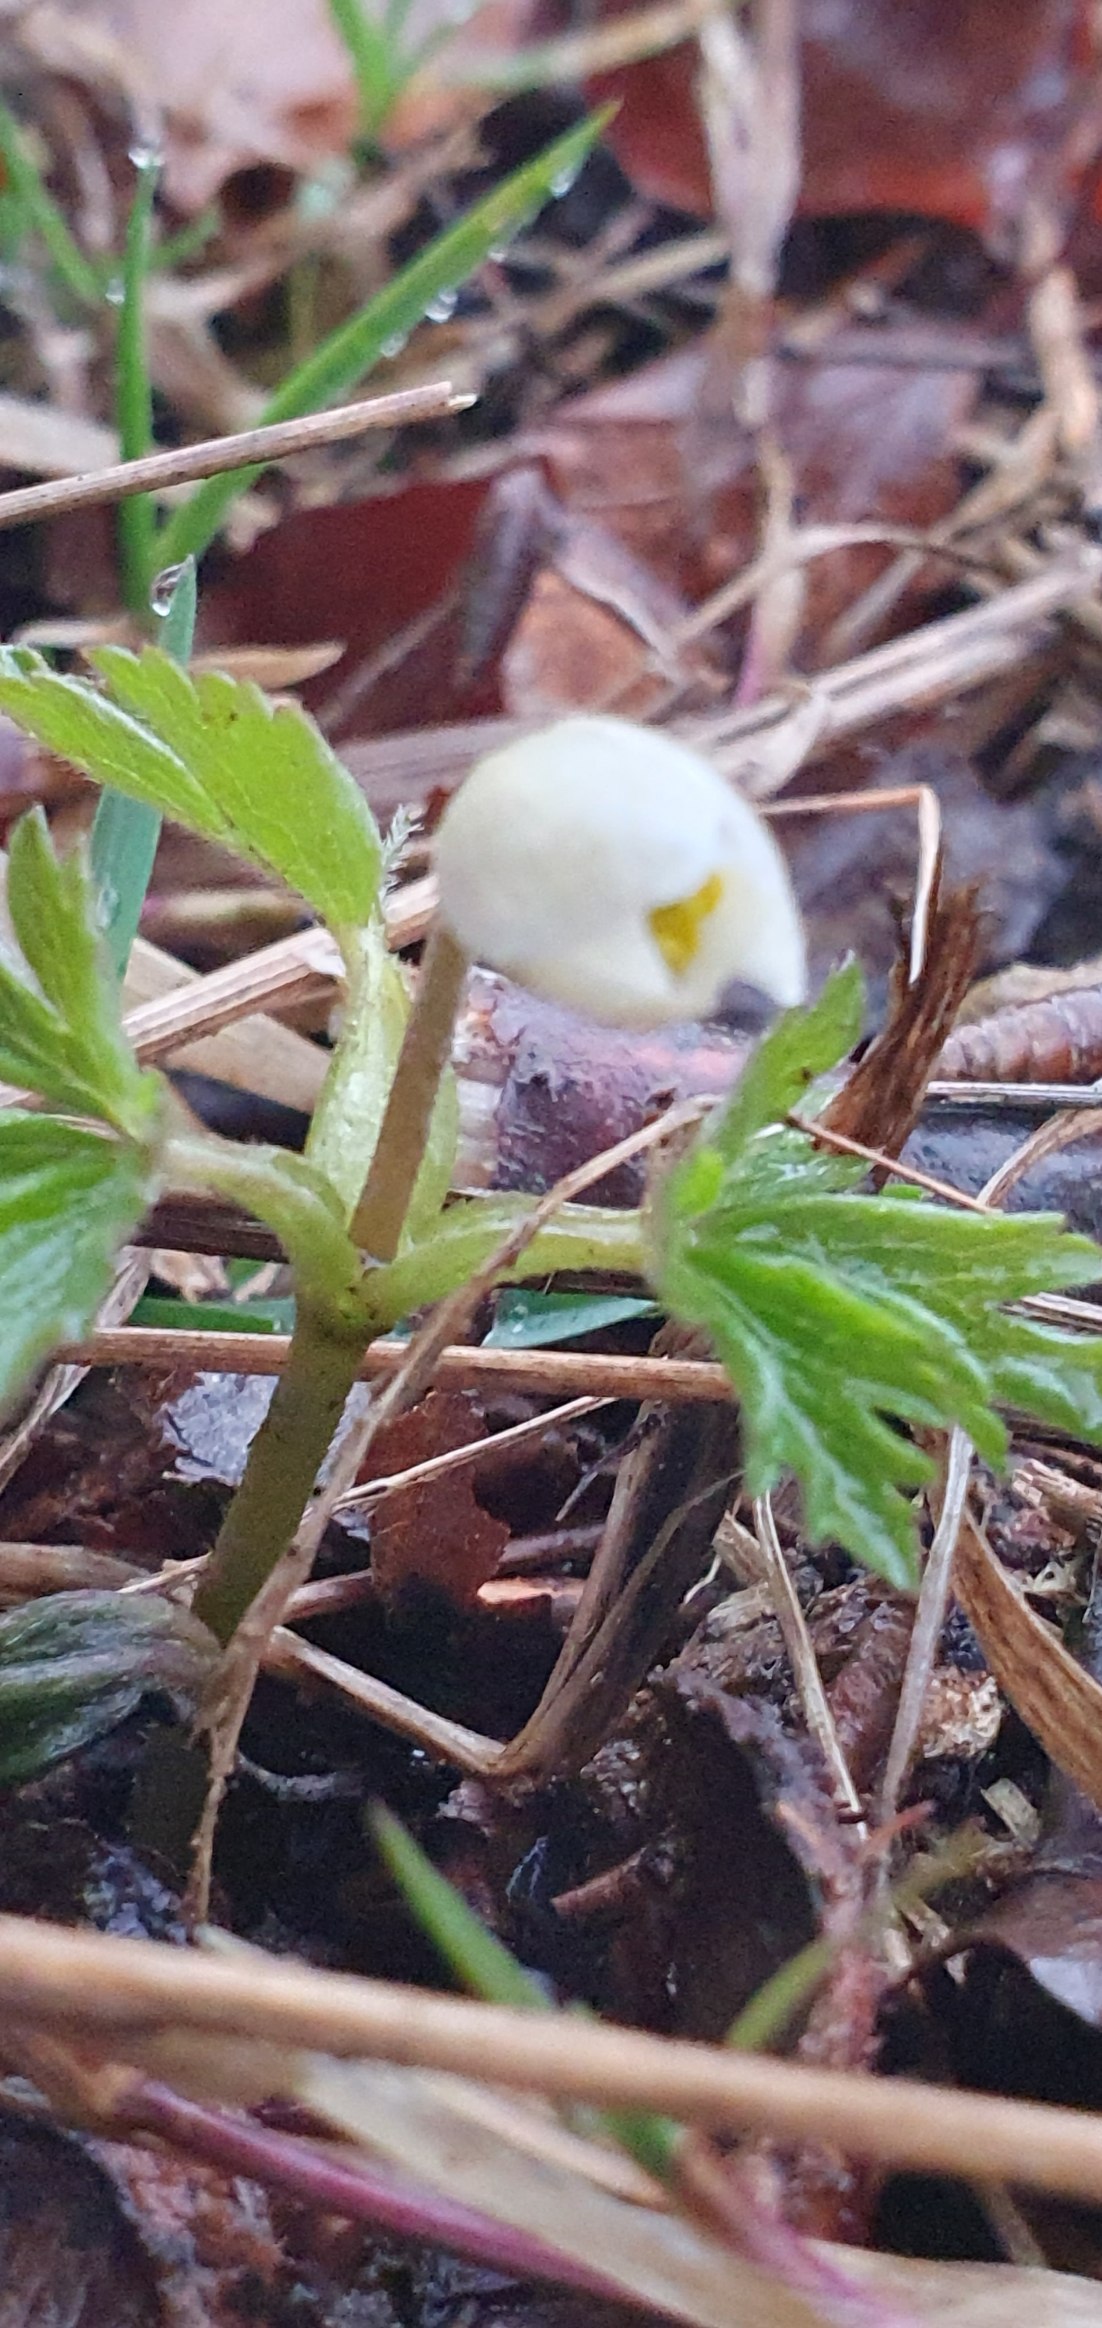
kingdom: Plantae
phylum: Tracheophyta
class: Magnoliopsida
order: Ranunculales
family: Ranunculaceae
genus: Anemone
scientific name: Anemone nemorosa
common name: Hvid anemone
